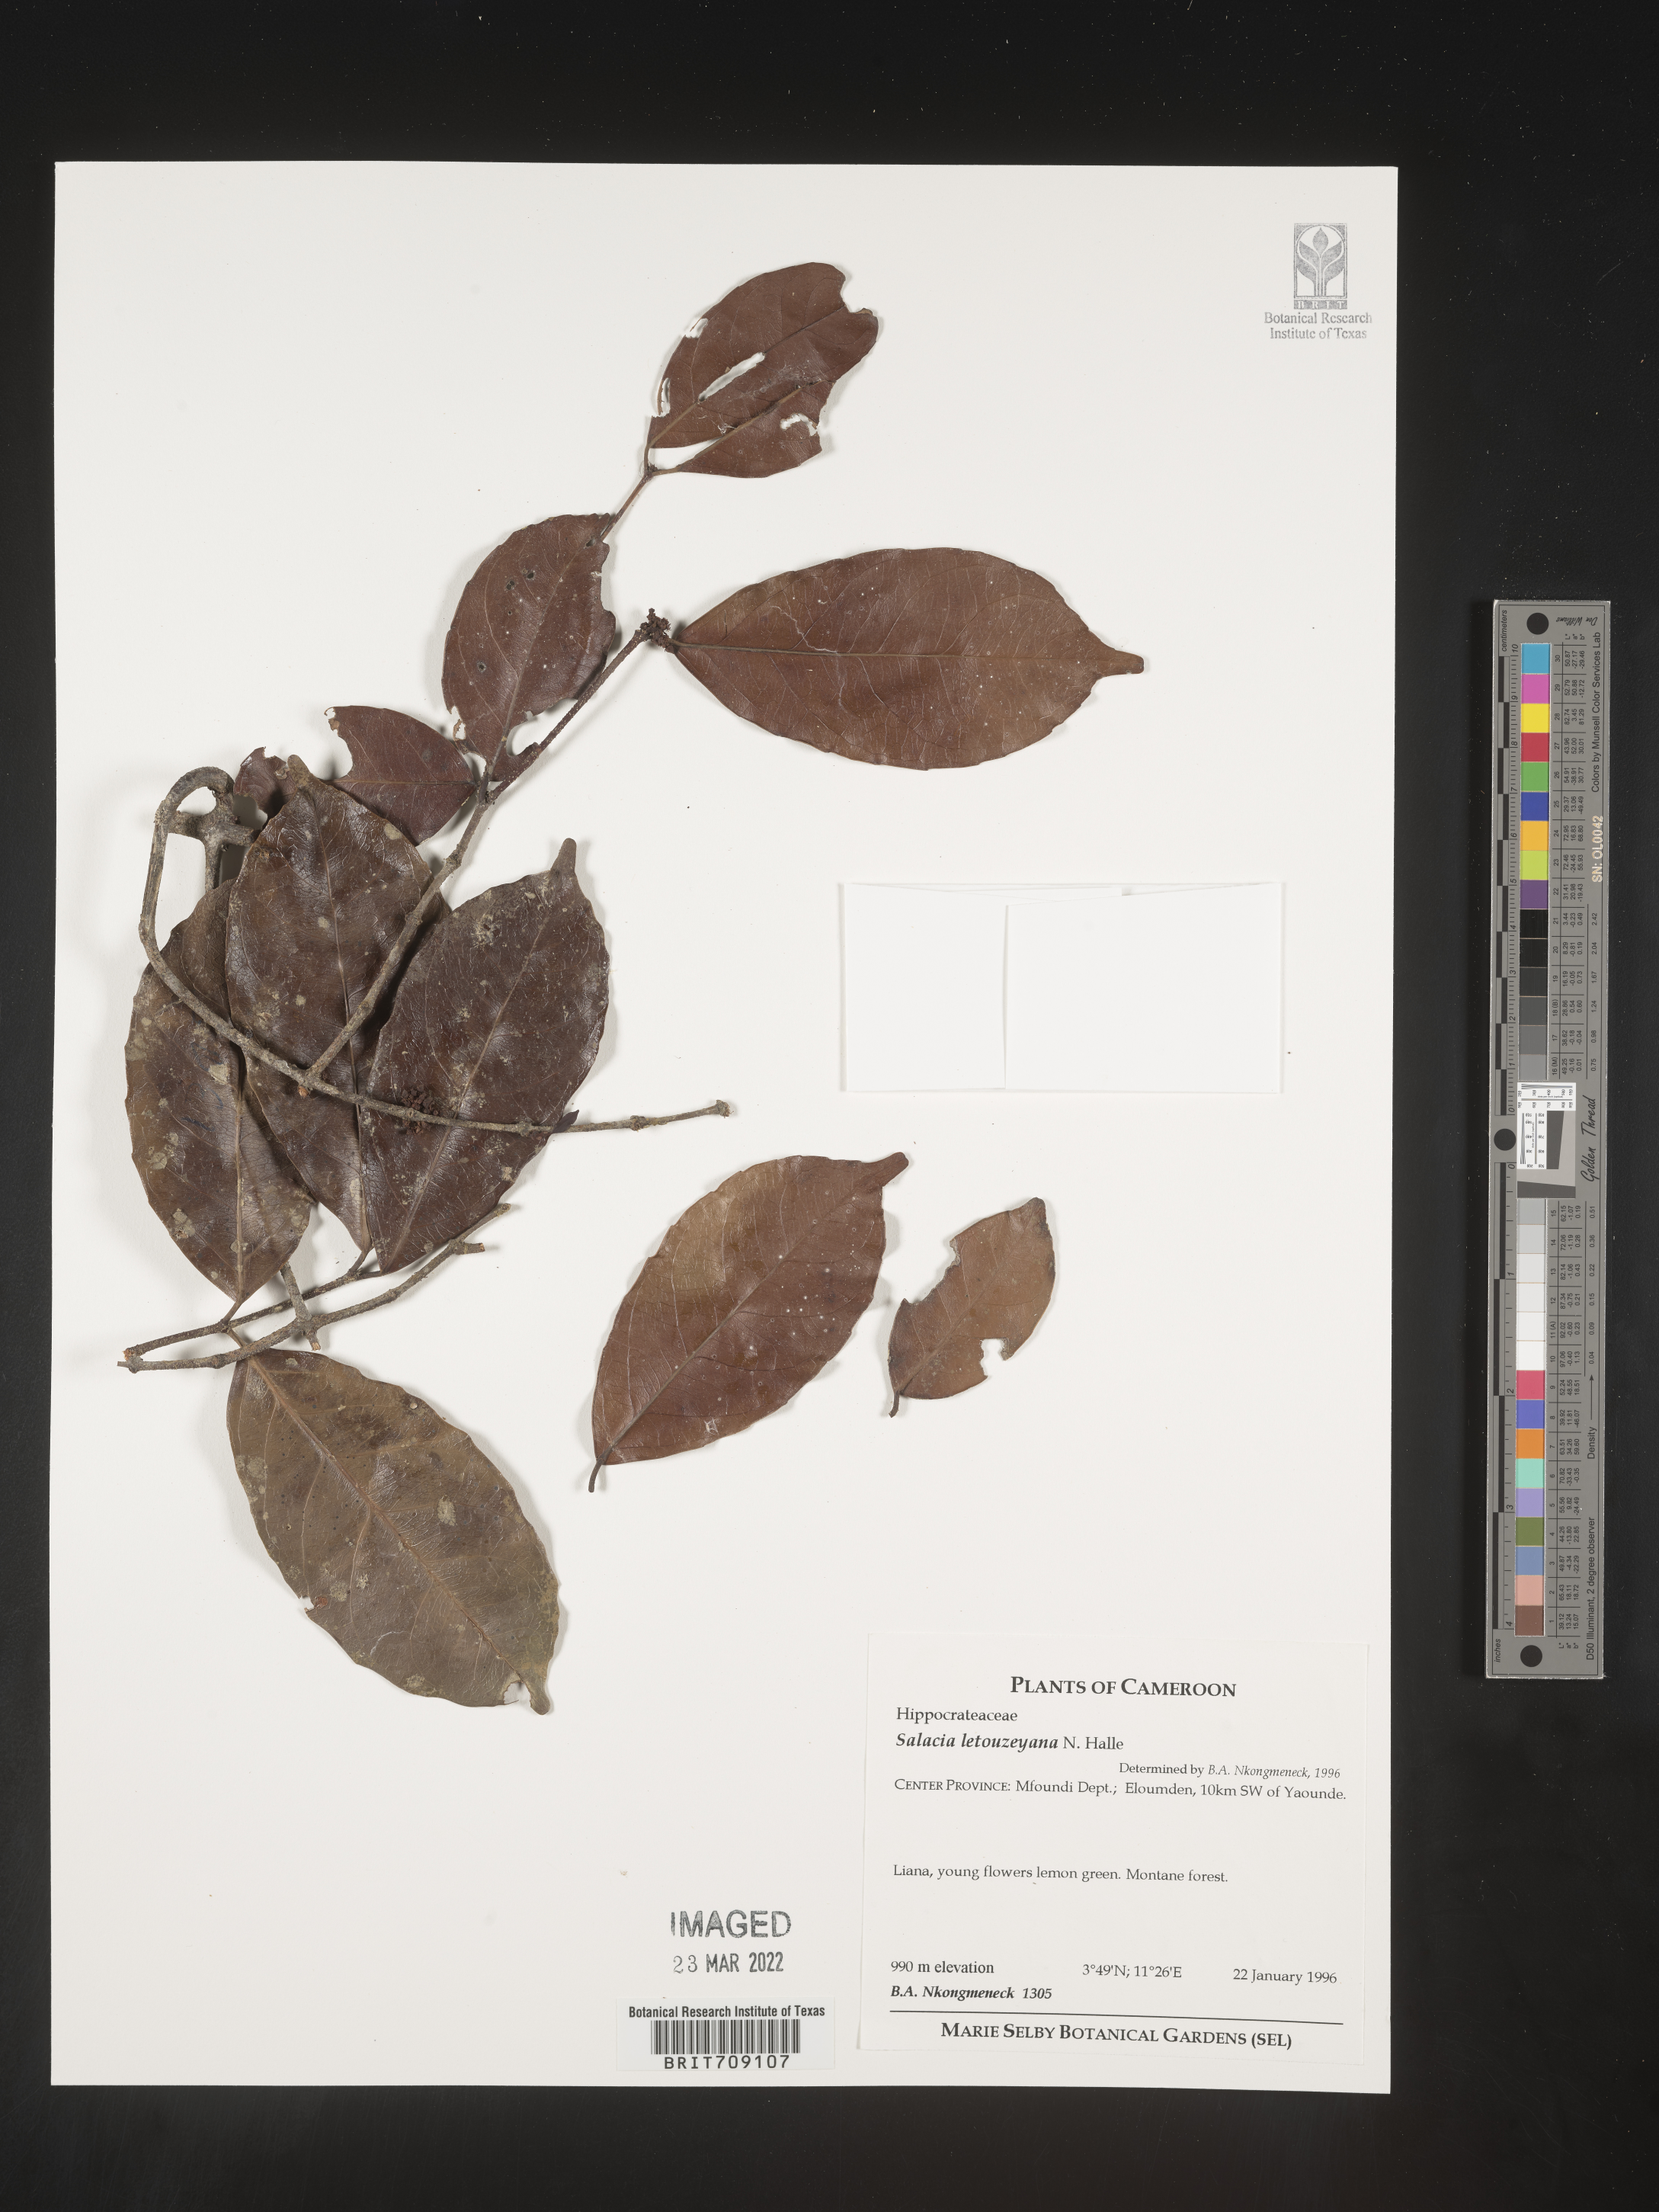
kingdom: Plantae
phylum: Tracheophyta
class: Magnoliopsida
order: Celastrales
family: Celastraceae
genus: Salacia
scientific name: Salacia
